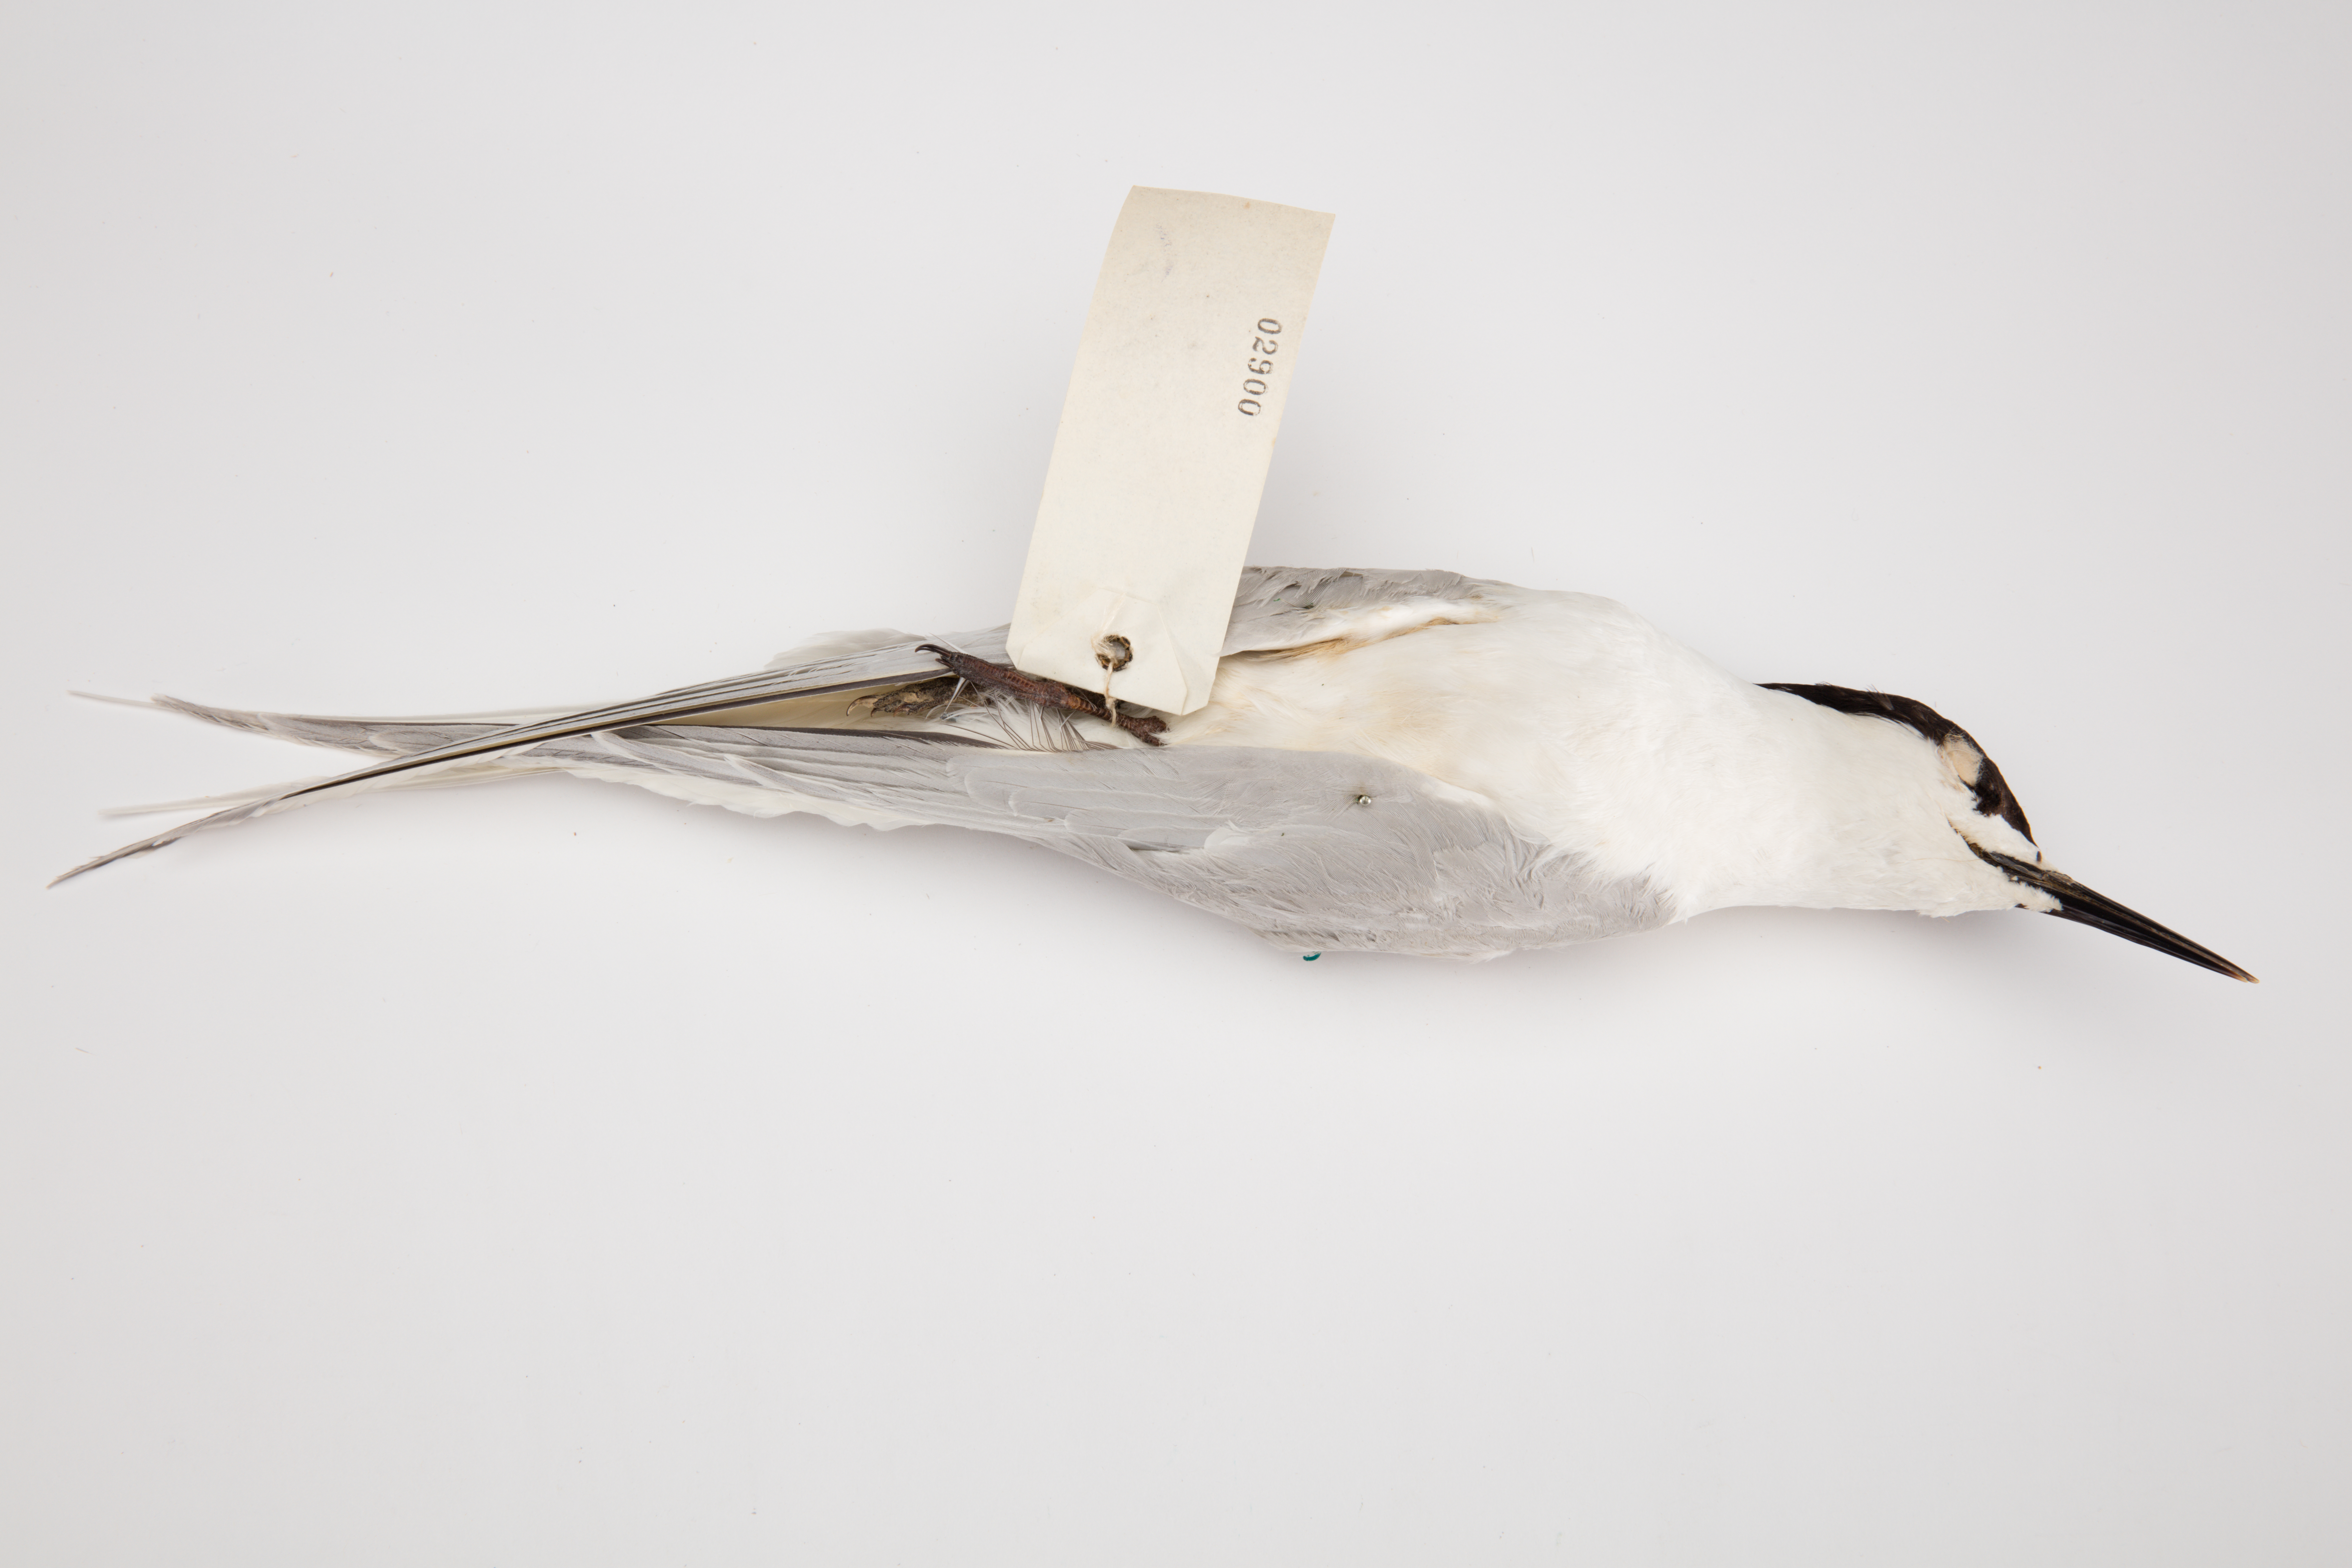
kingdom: Animalia
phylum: Chordata
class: Aves
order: Charadriiformes
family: Laridae
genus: Sterna
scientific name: Sterna striata
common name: White-fronted tern
